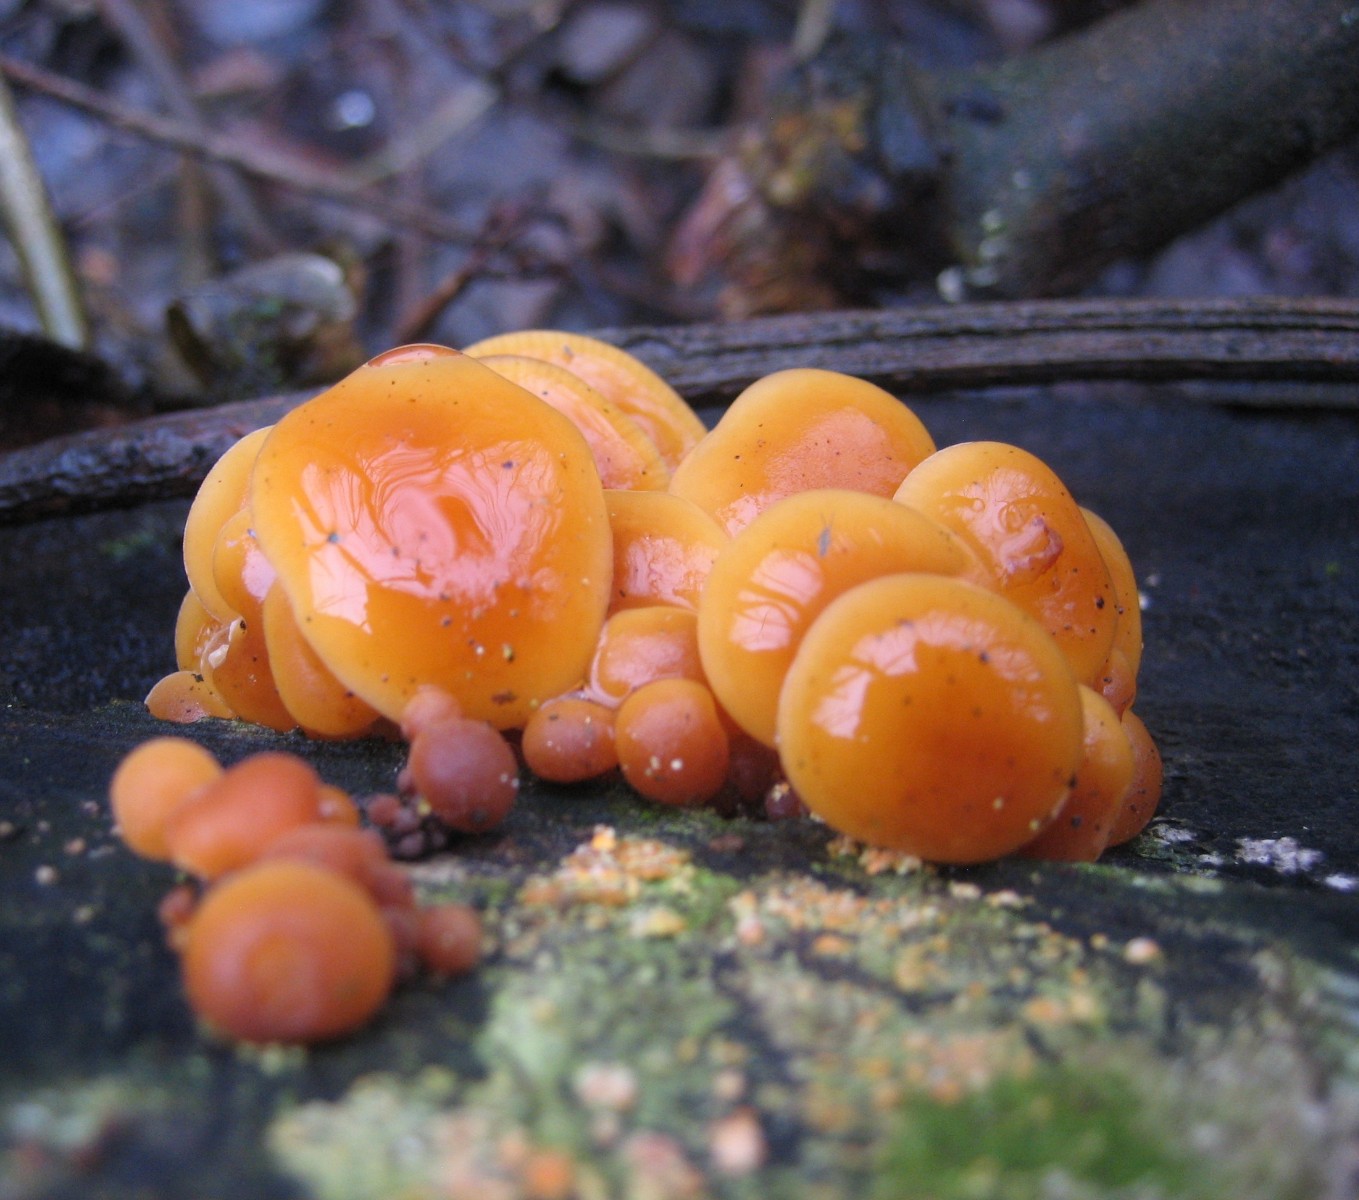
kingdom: Fungi
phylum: Basidiomycota
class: Agaricomycetes
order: Agaricales
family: Physalacriaceae
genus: Flammulina
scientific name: Flammulina velutipes
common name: gul fløjlsfod
